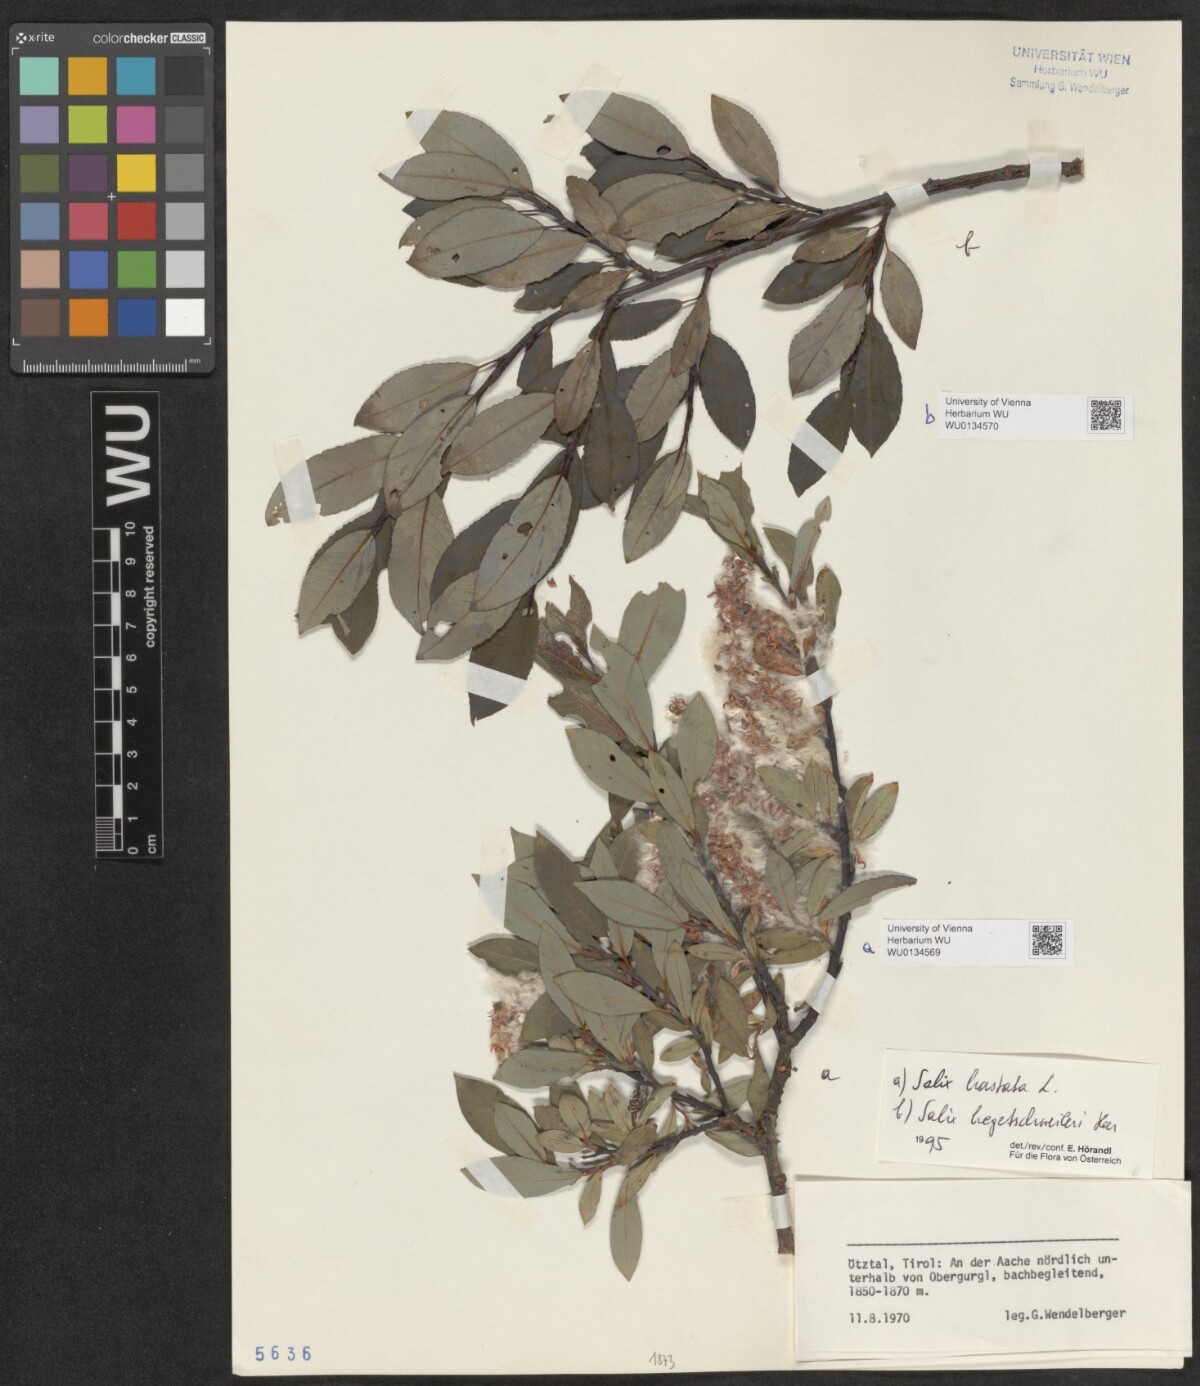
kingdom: Plantae
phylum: Tracheophyta
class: Magnoliopsida
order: Malpighiales
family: Salicaceae
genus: Salix
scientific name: Salix hastata
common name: Halberd willow
